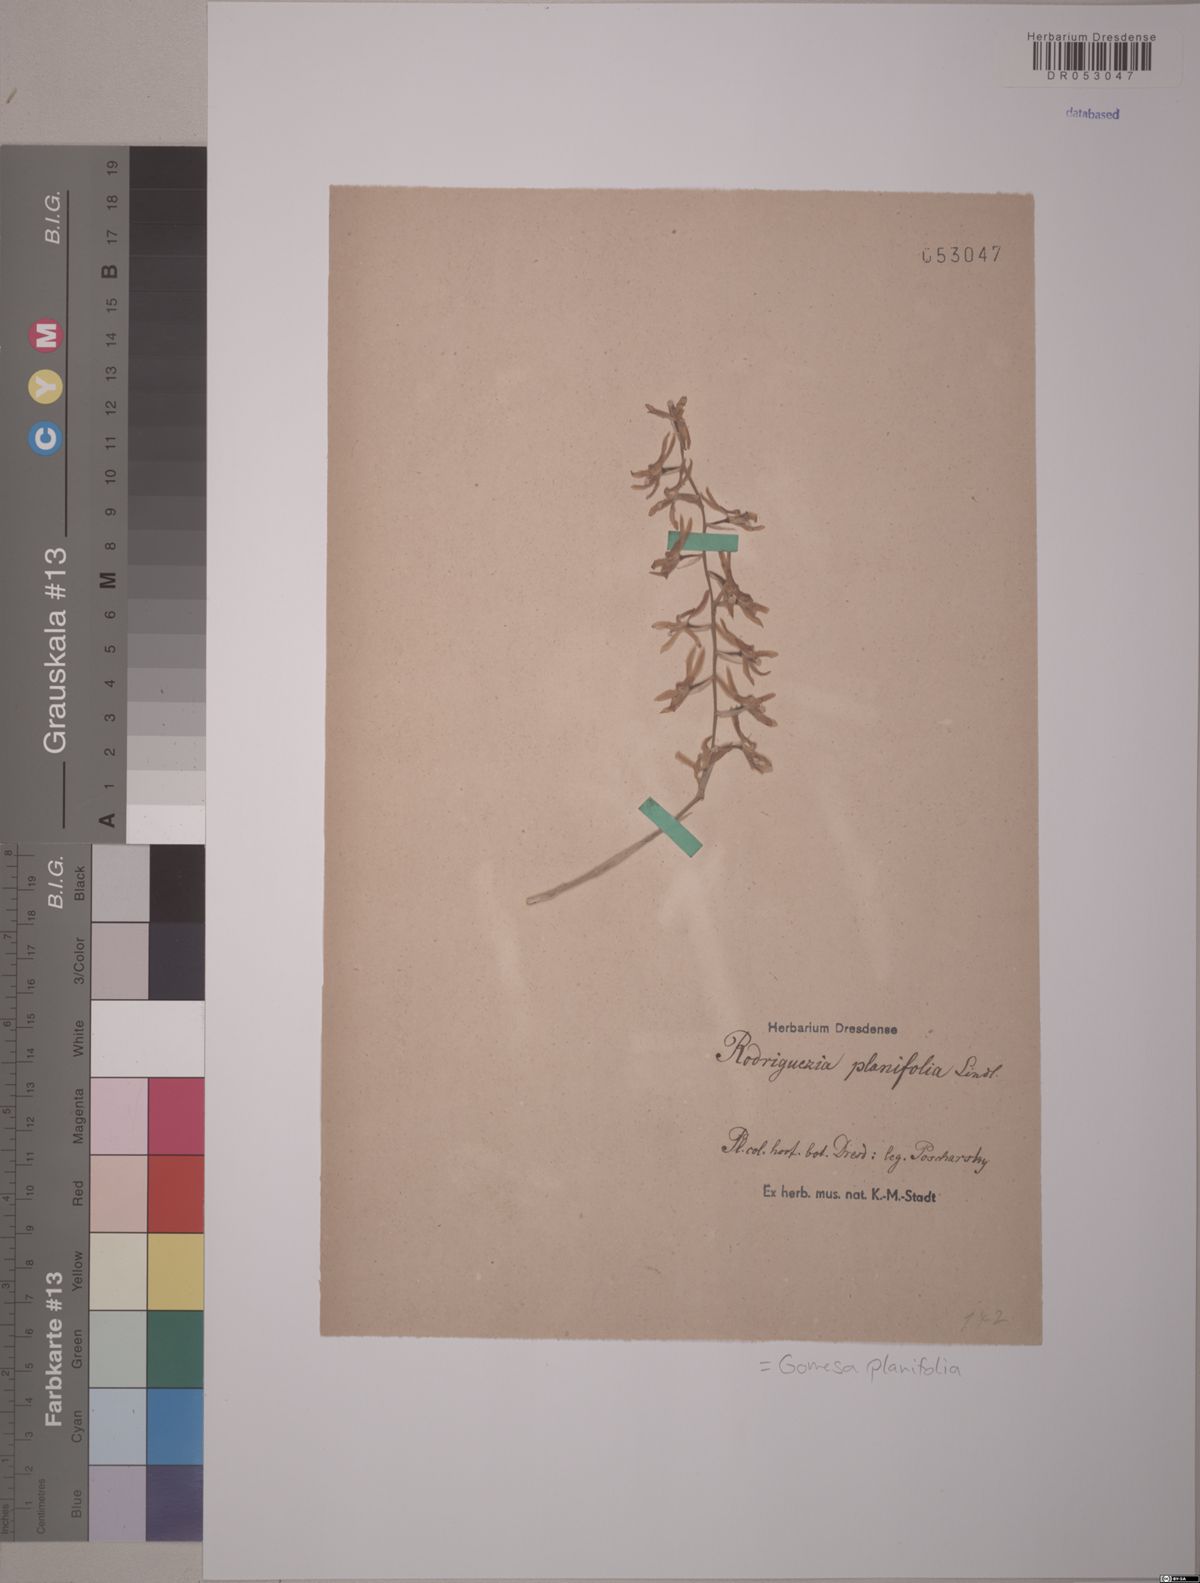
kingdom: Plantae
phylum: Tracheophyta
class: Liliopsida
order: Asparagales
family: Orchidaceae
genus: Gomesa
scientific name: Gomesa planifolia
